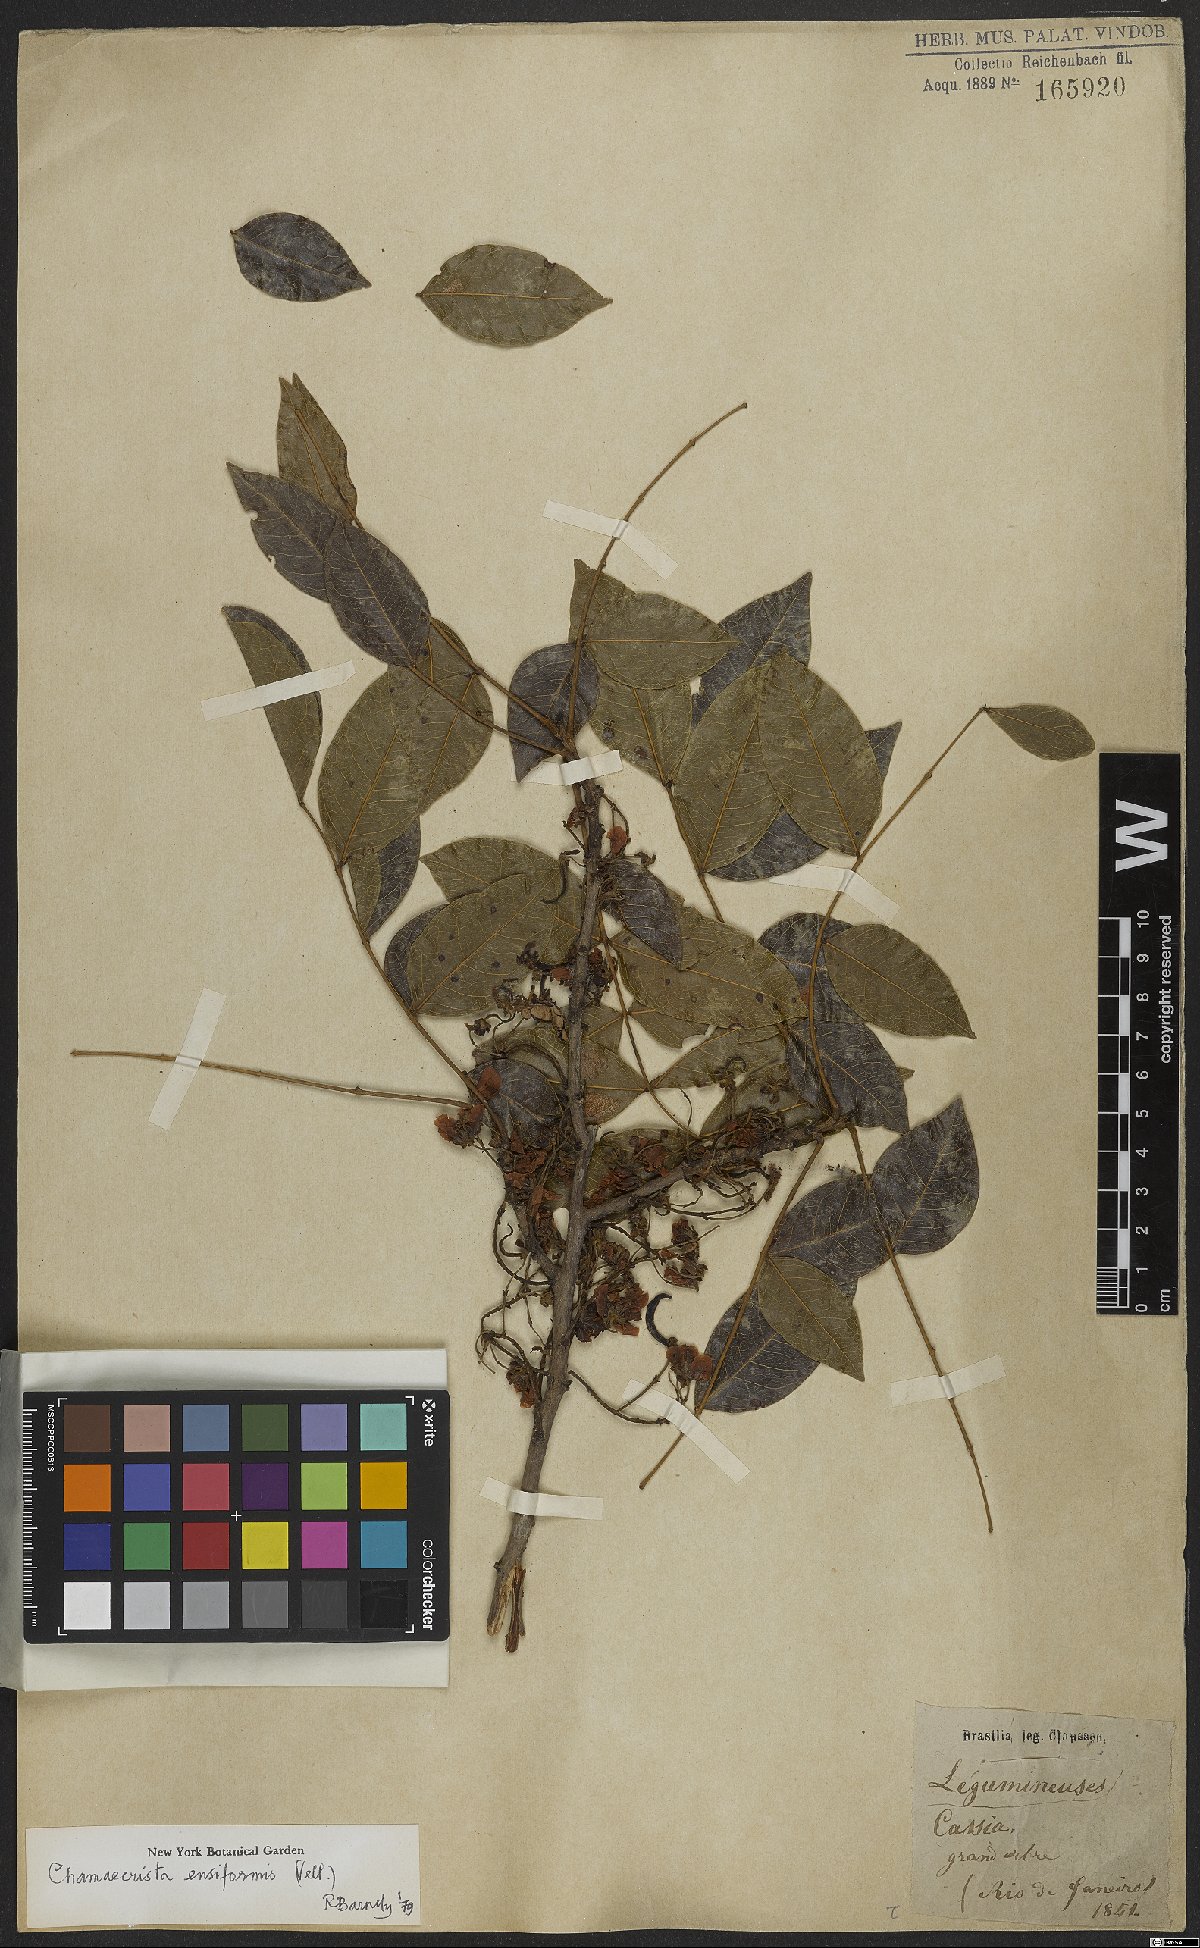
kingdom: Plantae
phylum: Tracheophyta
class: Magnoliopsida
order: Fabales
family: Fabaceae
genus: Chamaecrista
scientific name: Chamaecrista ensiformis
